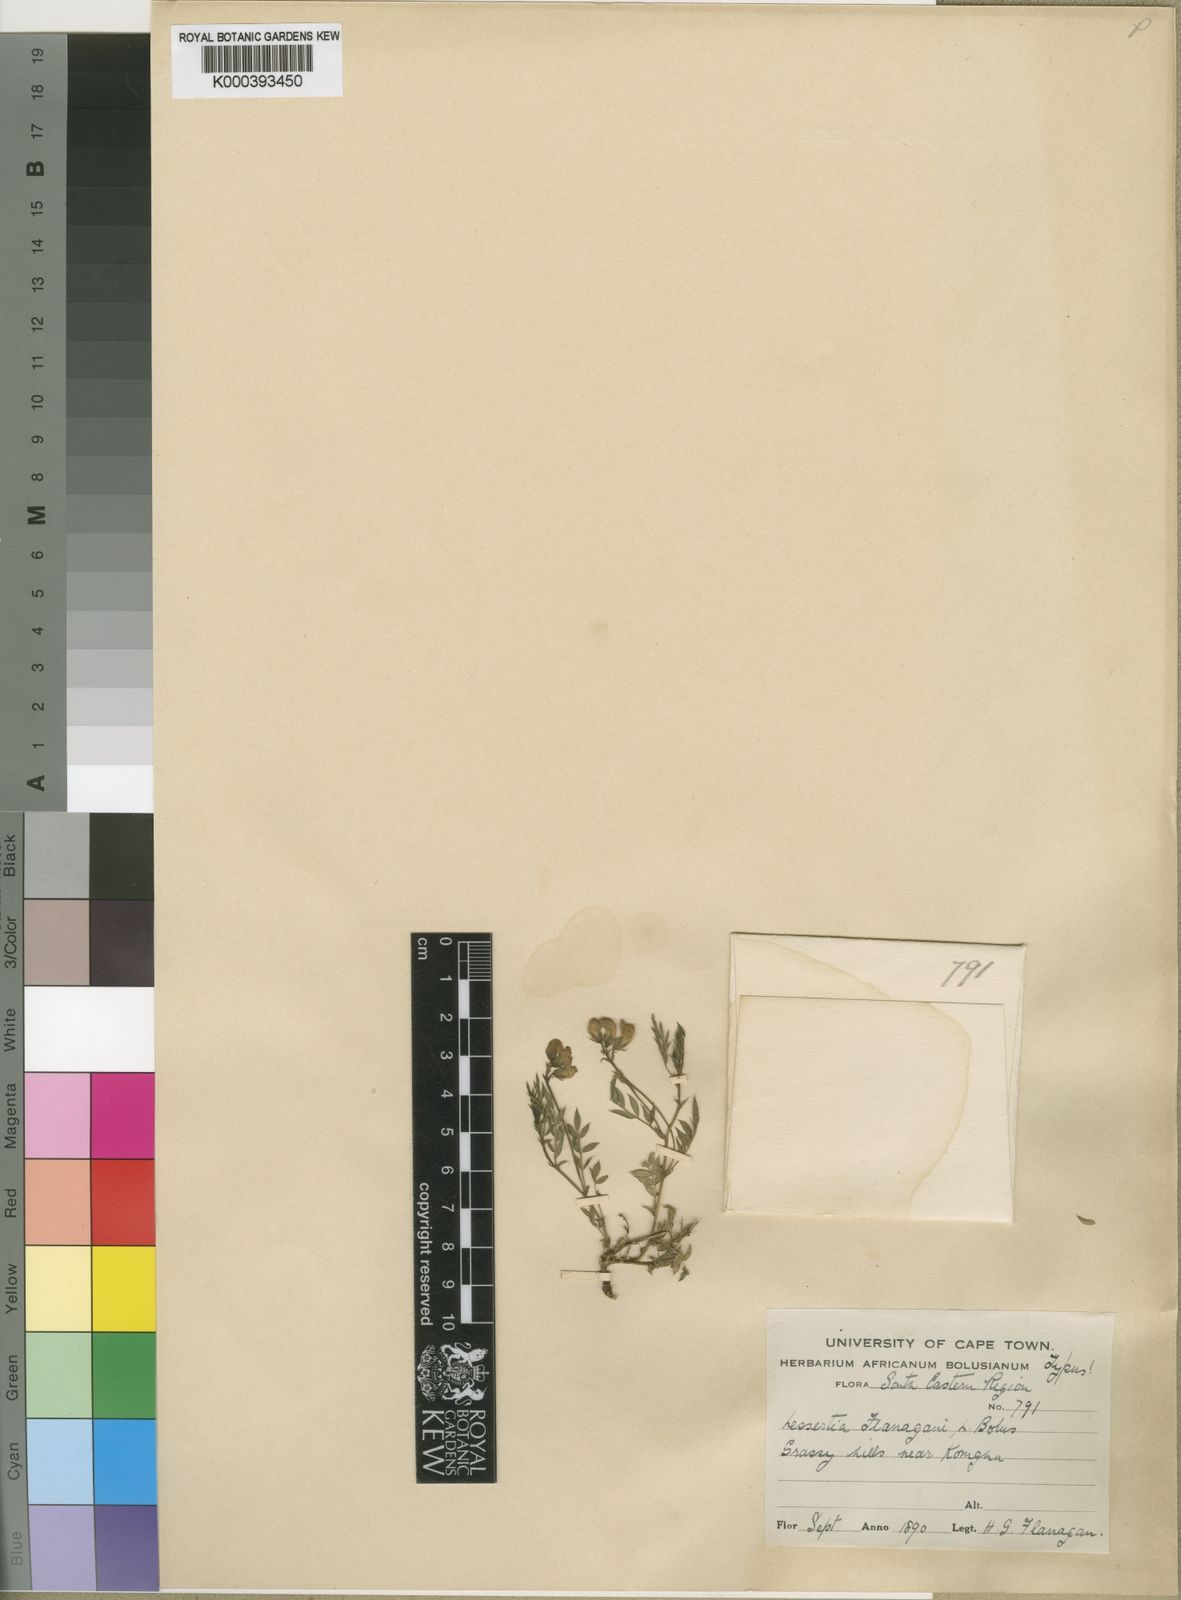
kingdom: Plantae
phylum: Tracheophyta
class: Magnoliopsida
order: Fabales
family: Fabaceae
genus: Lessertia
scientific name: Lessertia flanaganii
